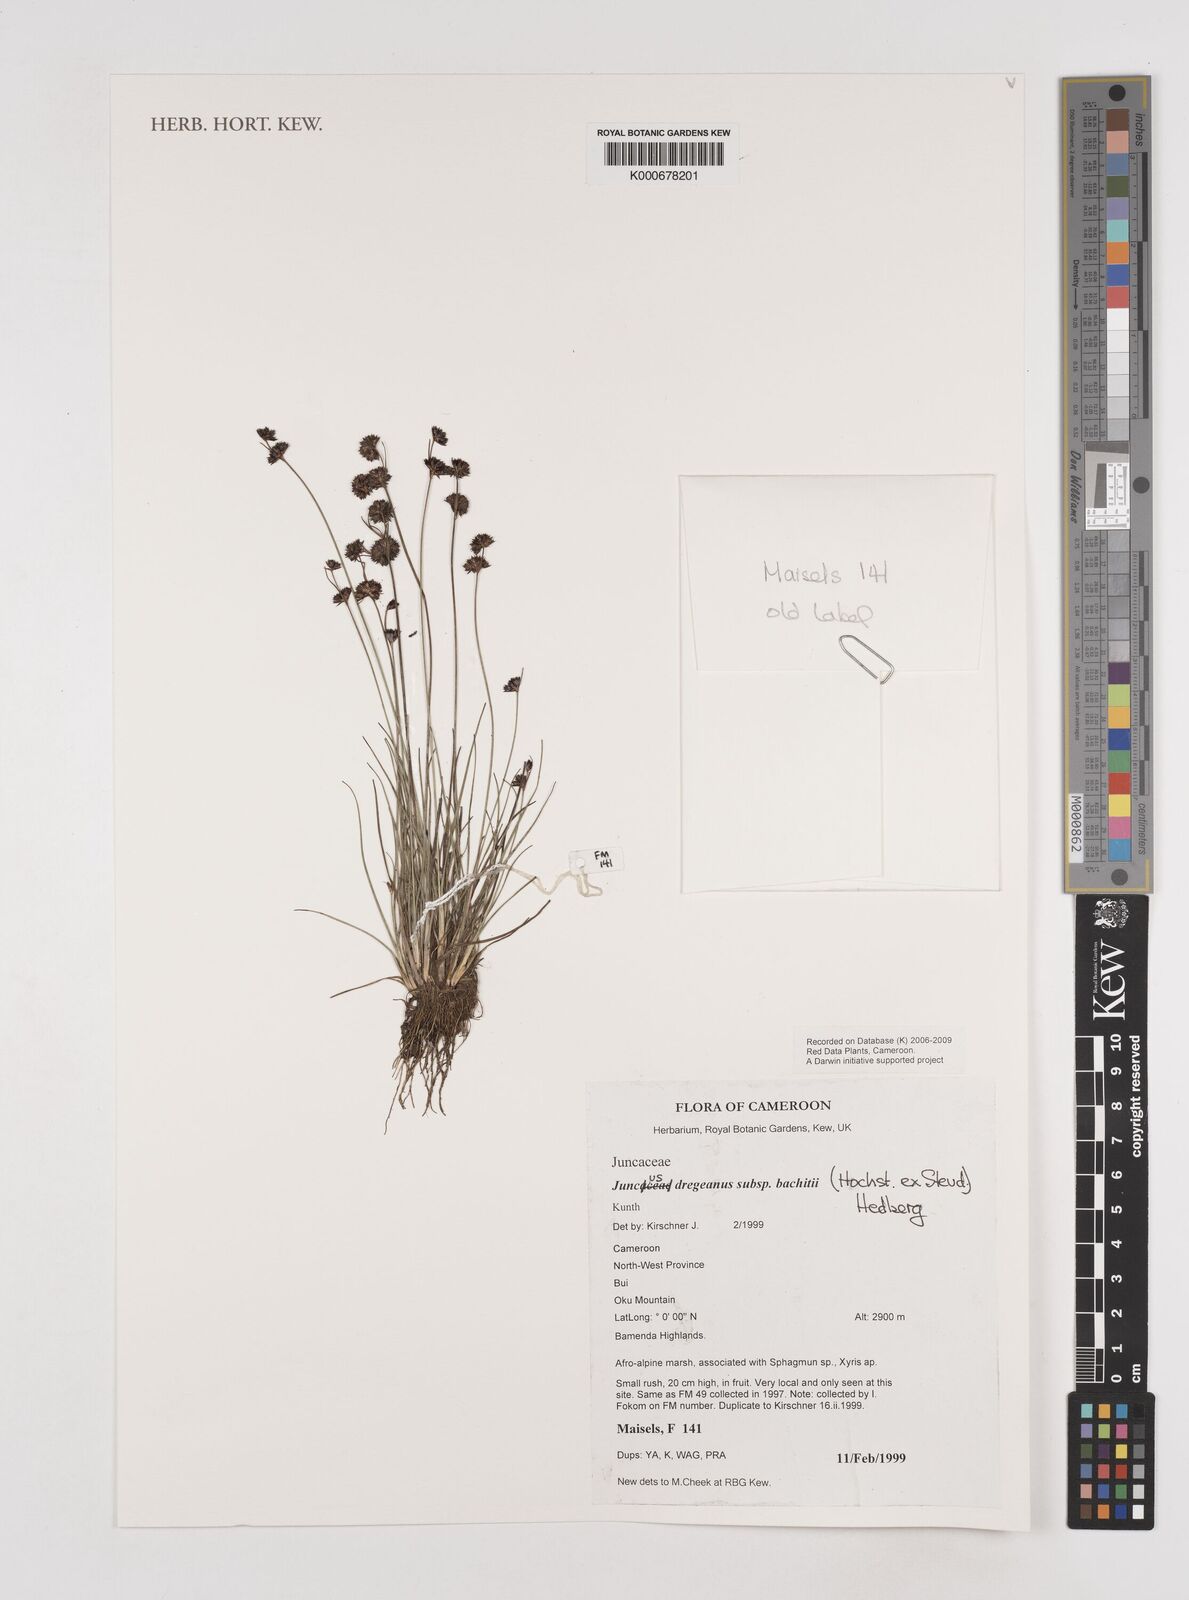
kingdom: Plantae
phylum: Tracheophyta
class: Liliopsida
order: Poales
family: Juncaceae
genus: Juncus
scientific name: Juncus dregeanus
